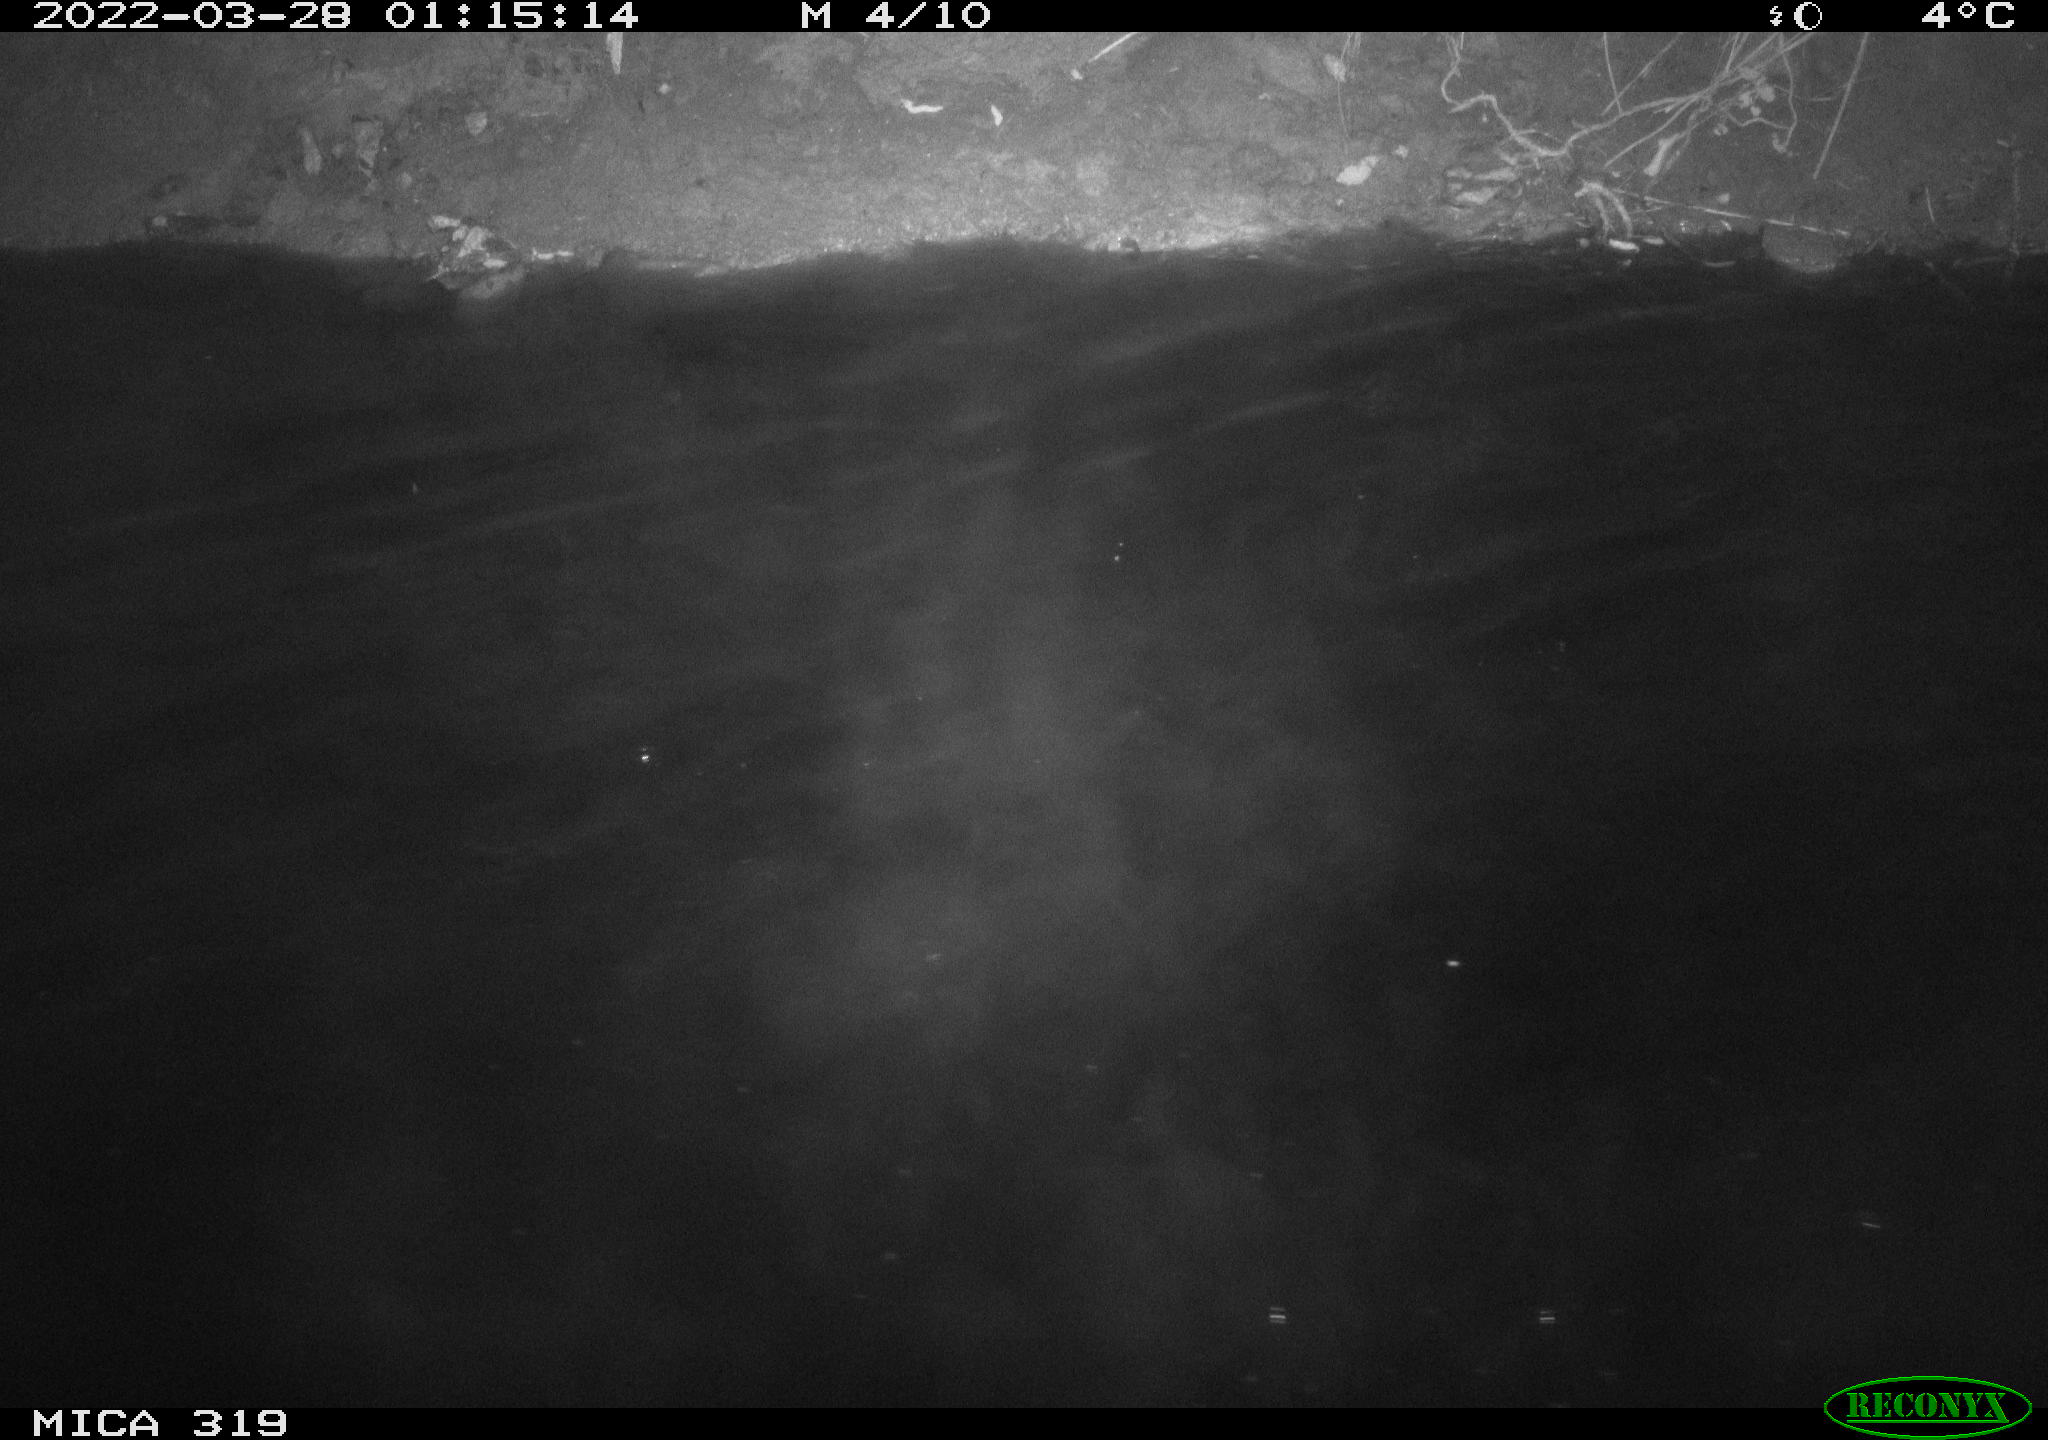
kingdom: Animalia
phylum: Chordata
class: Aves
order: Anseriformes
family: Anatidae
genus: Anas
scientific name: Anas platyrhynchos
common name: Mallard
